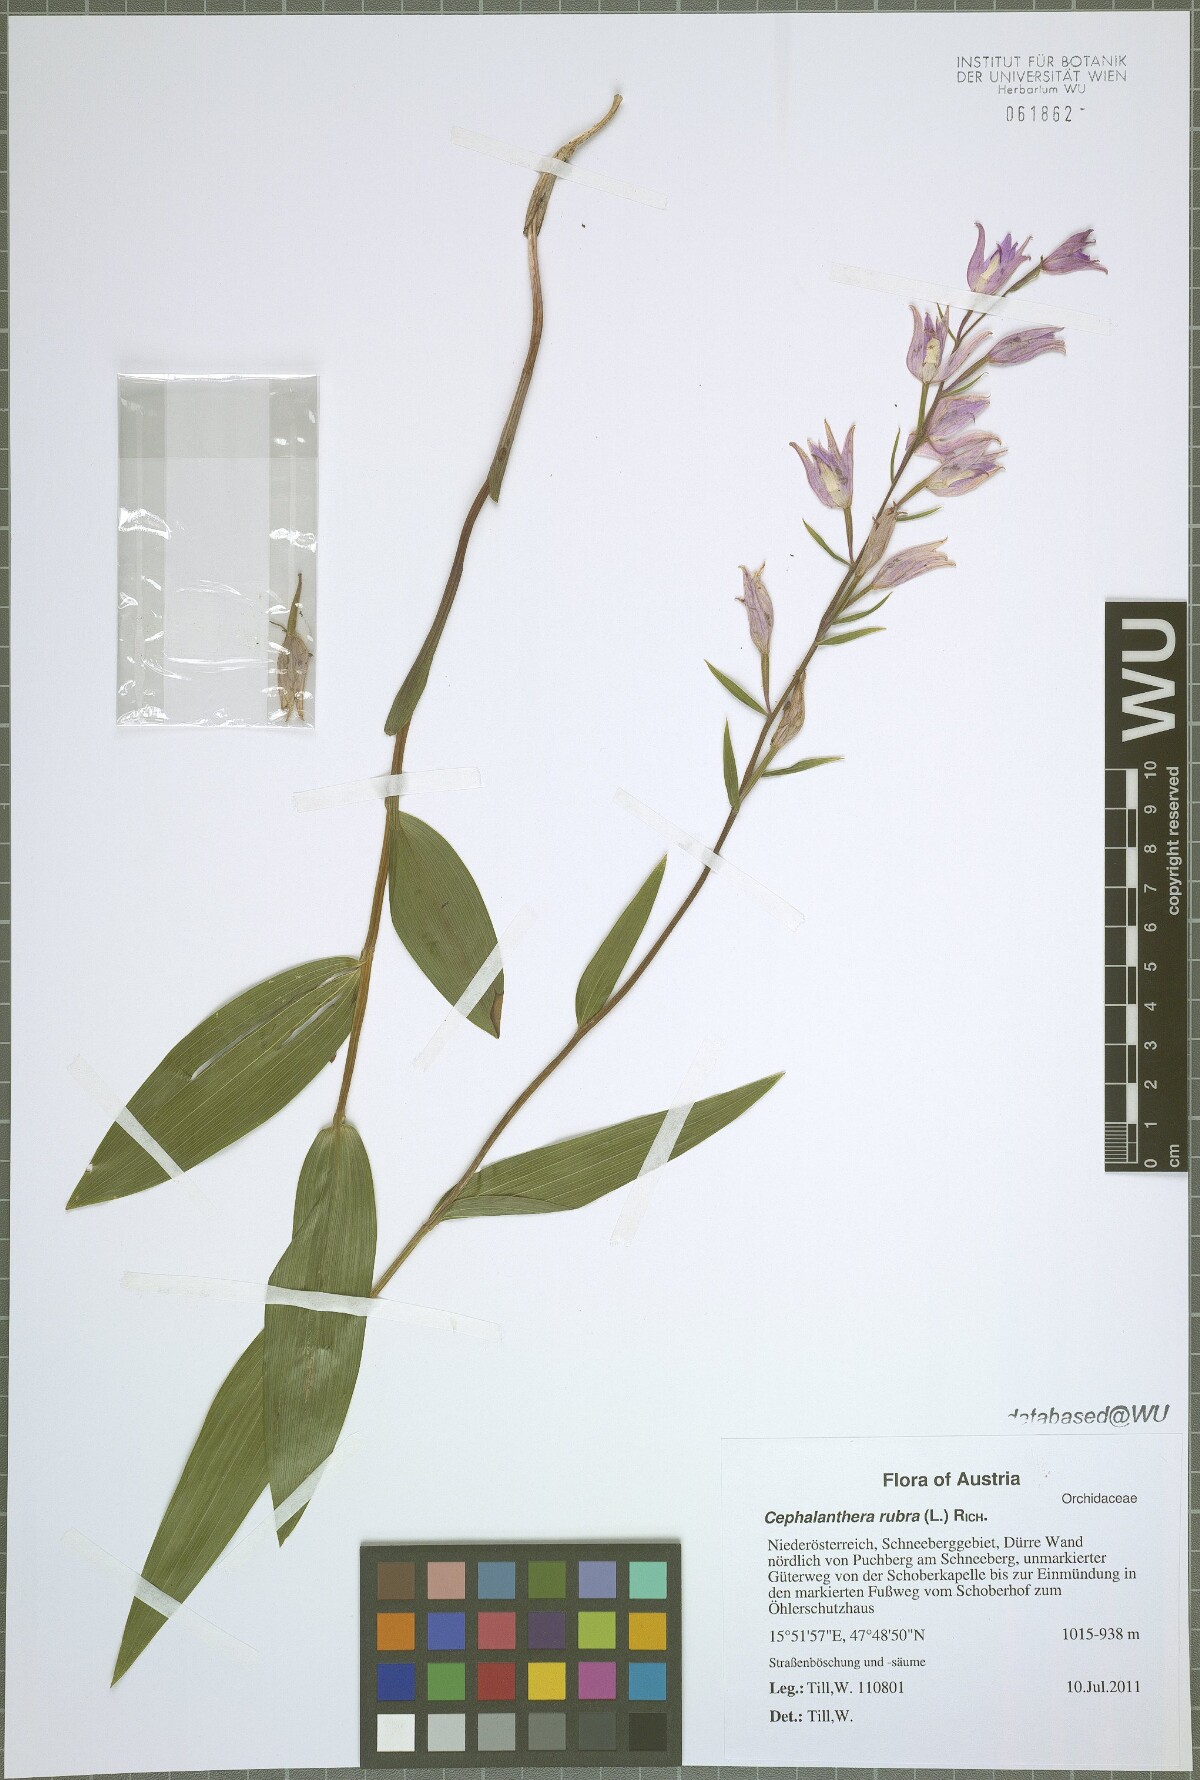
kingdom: Plantae
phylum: Tracheophyta
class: Liliopsida
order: Asparagales
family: Orchidaceae
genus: Cephalanthera
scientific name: Cephalanthera rubra
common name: Red helleborine
